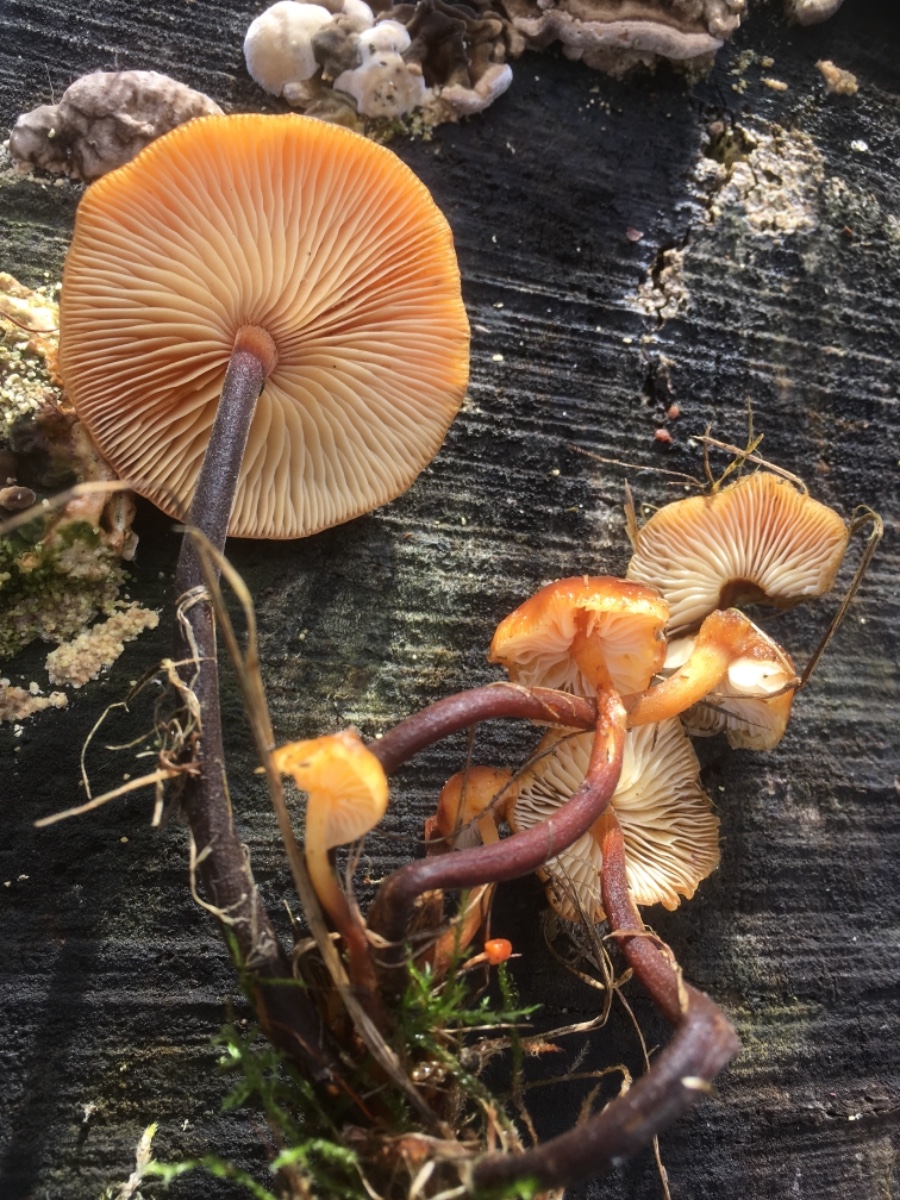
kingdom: Fungi
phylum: Basidiomycota
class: Agaricomycetes
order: Agaricales
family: Physalacriaceae
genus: Flammulina
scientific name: Flammulina velutipes
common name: gul fløjlsfod
